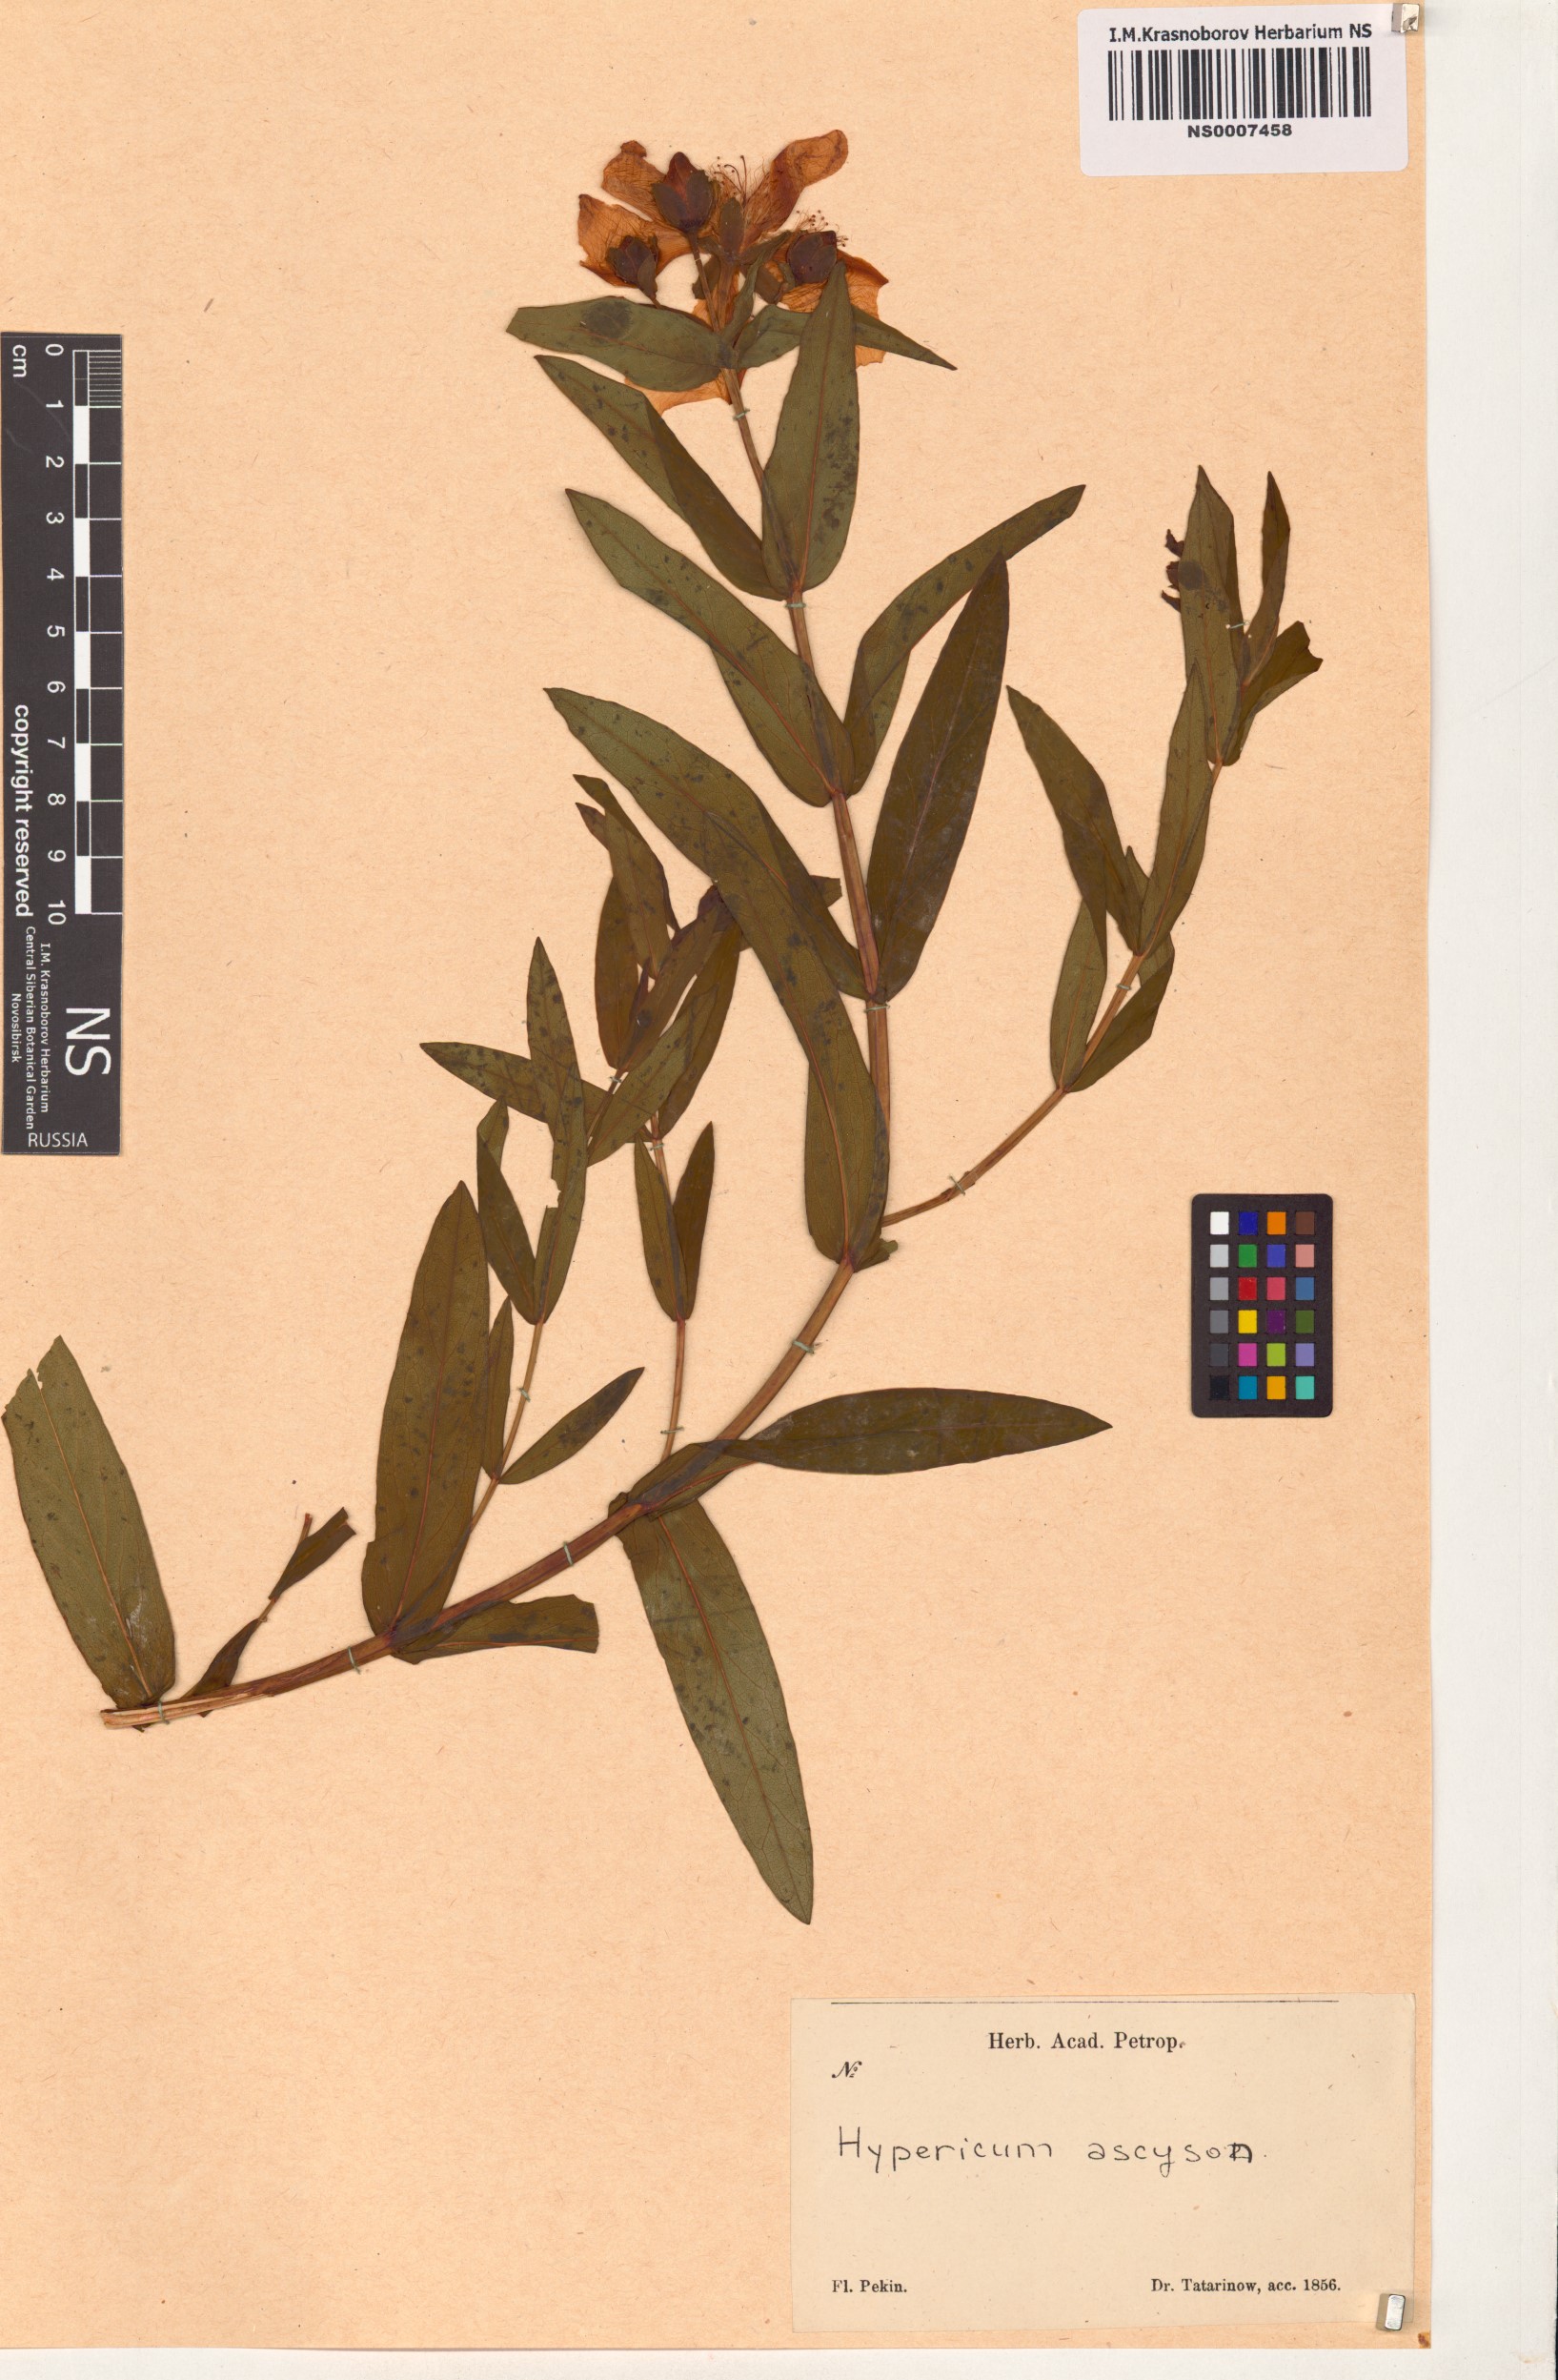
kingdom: Plantae
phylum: Tracheophyta
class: Magnoliopsida
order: Malpighiales
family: Hypericaceae
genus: Hypericum
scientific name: Hypericum ascyron
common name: Giant st. john's-wort
